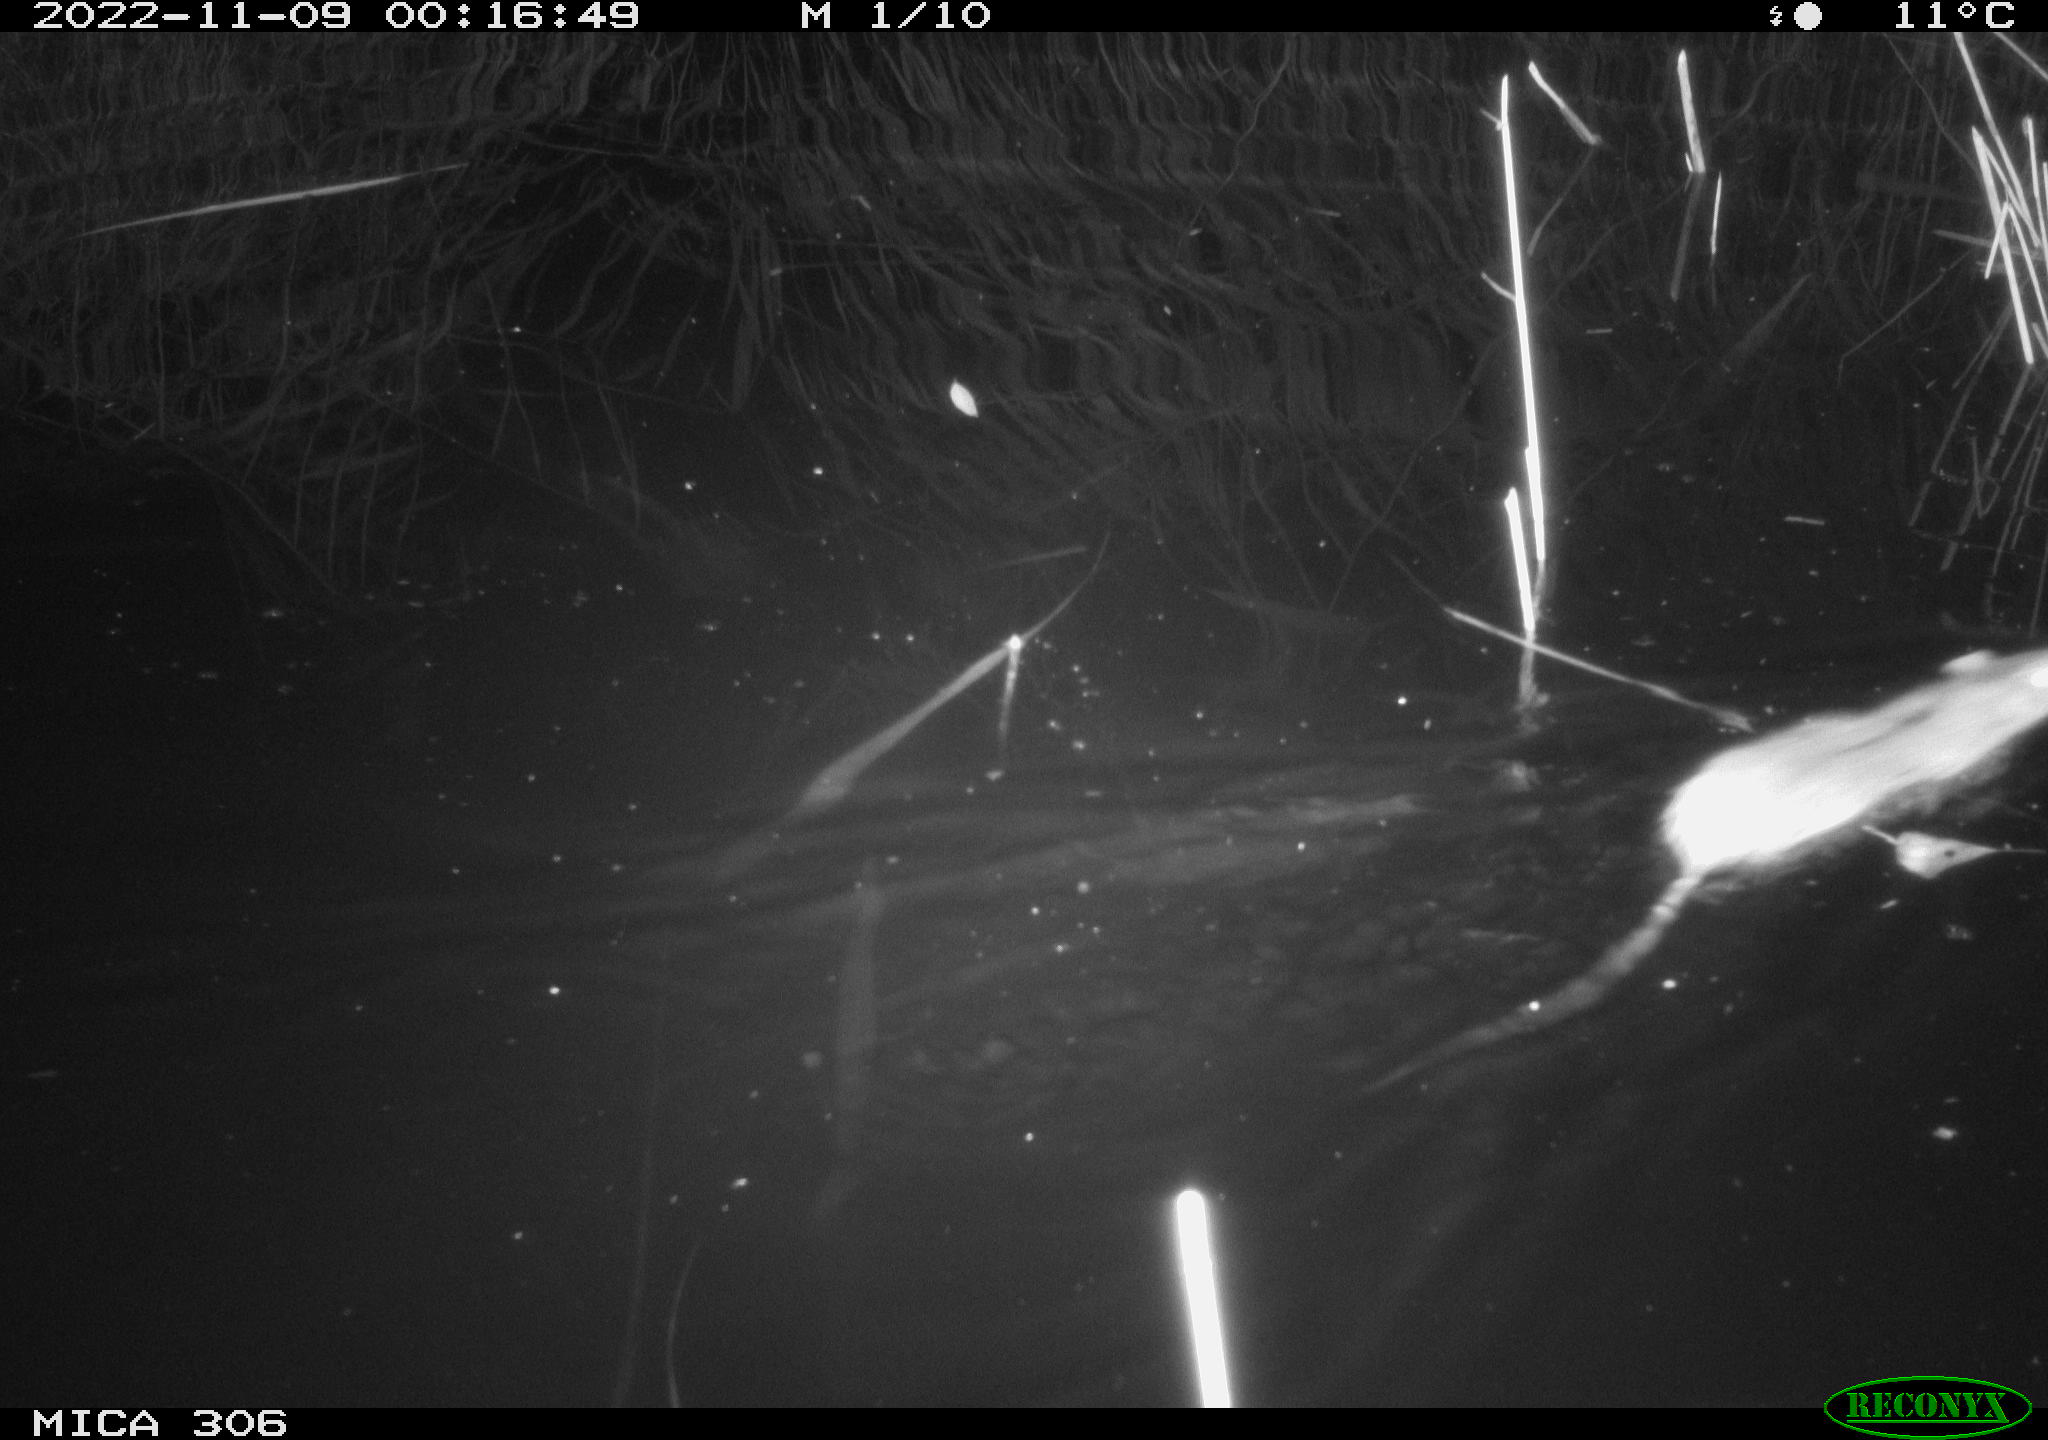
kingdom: Animalia
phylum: Chordata
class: Mammalia
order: Rodentia
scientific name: Rodentia
